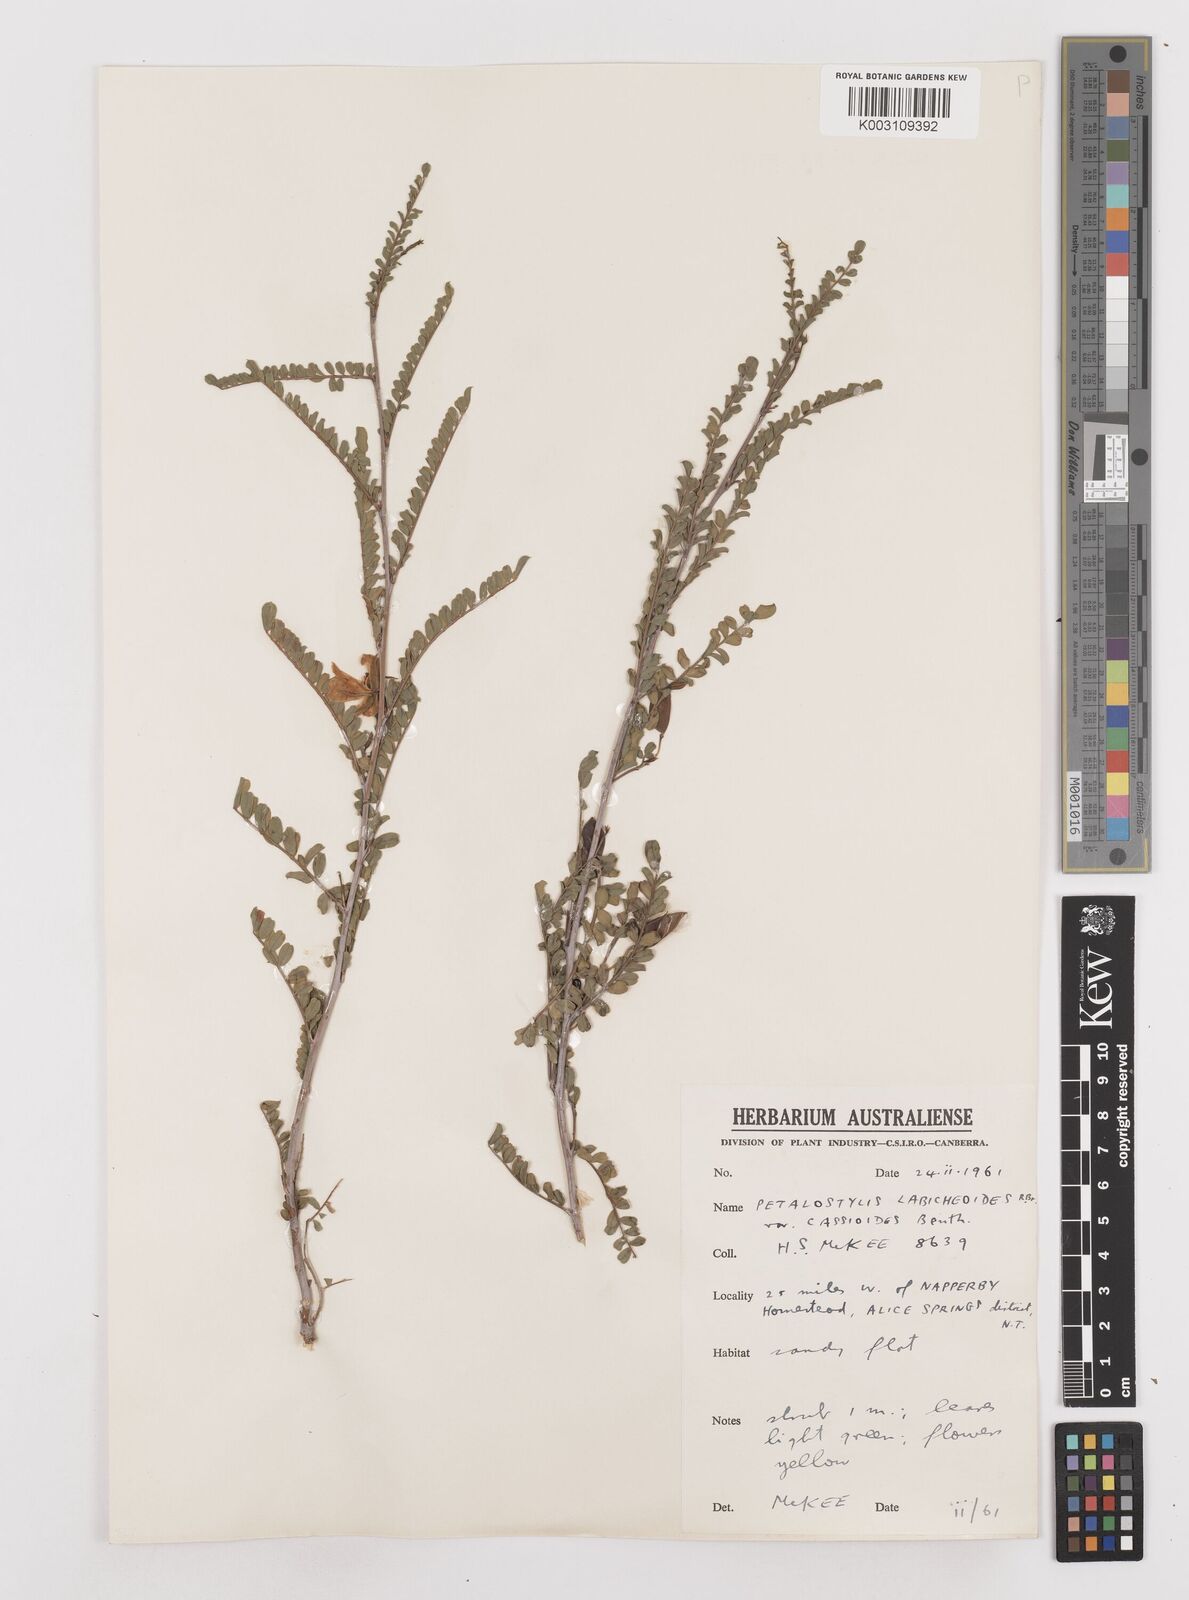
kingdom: Plantae
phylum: Tracheophyta
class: Magnoliopsida
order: Fabales
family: Fabaceae
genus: Petalostylis
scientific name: Petalostylis labicheoides
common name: Butterfly bush
